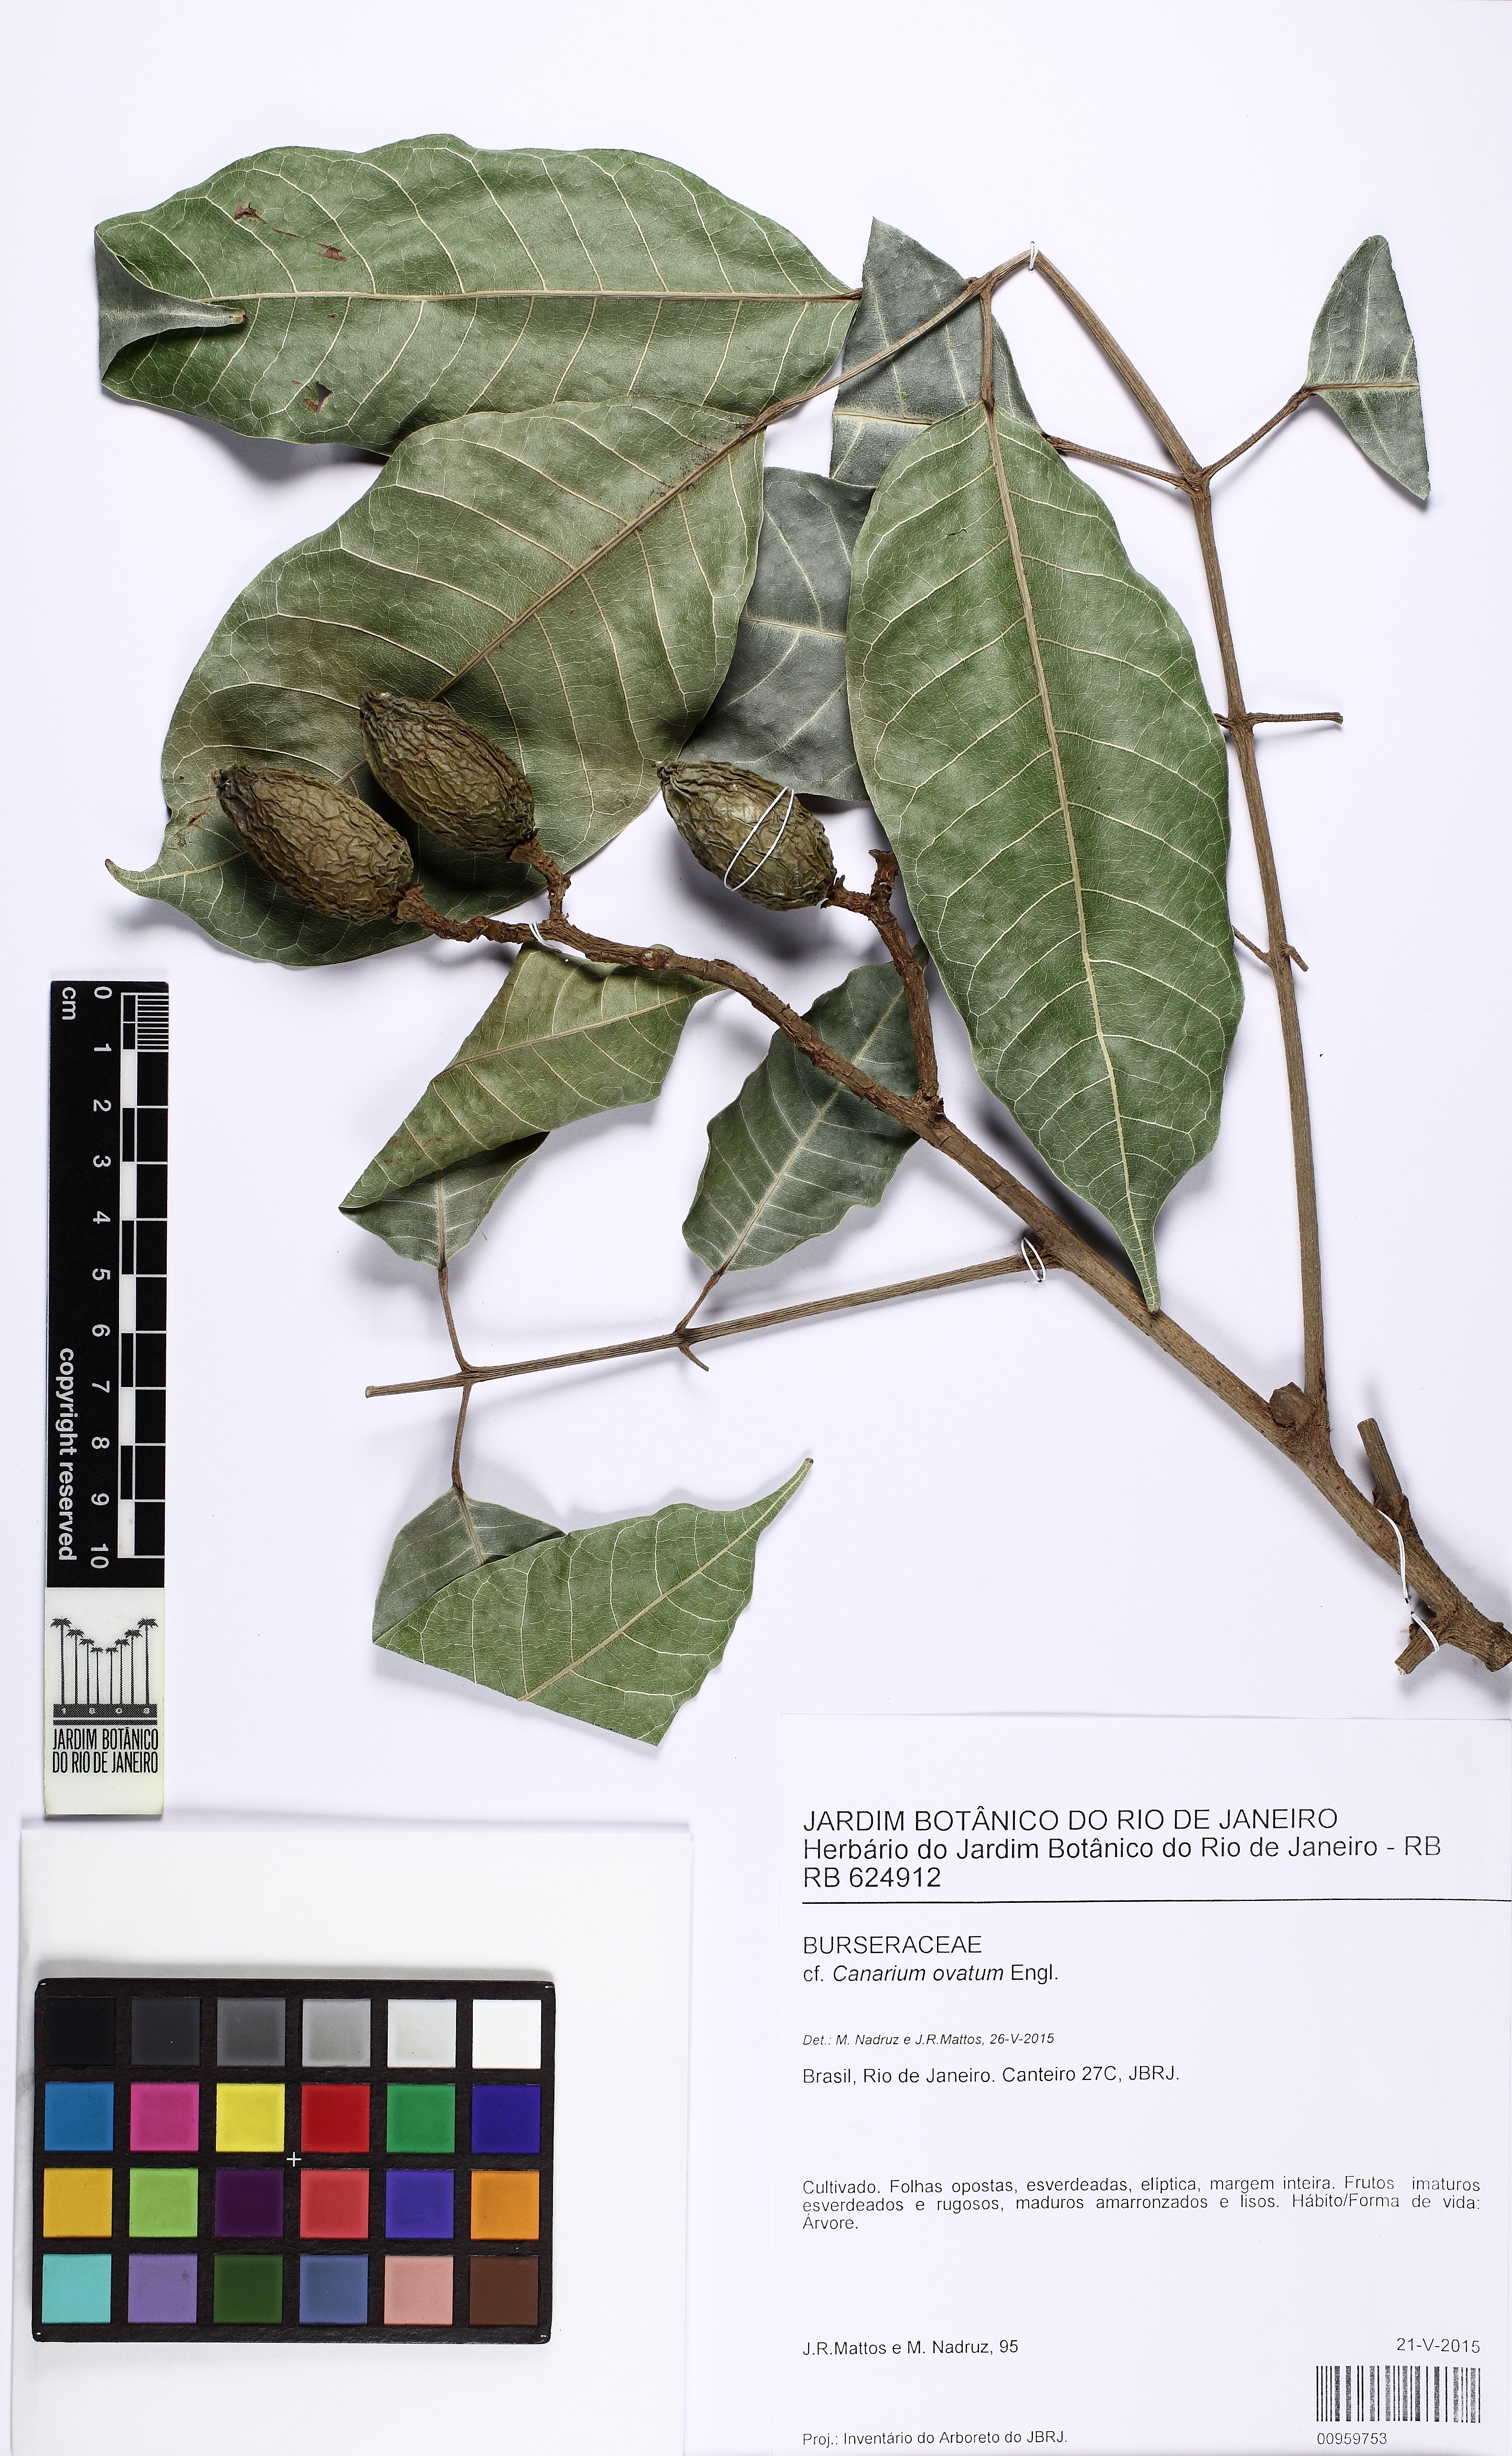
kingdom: Plantae
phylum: Tracheophyta
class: Magnoliopsida
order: Sapindales
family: Burseraceae
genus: Canarium
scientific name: Canarium ovatum
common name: Pilinut
